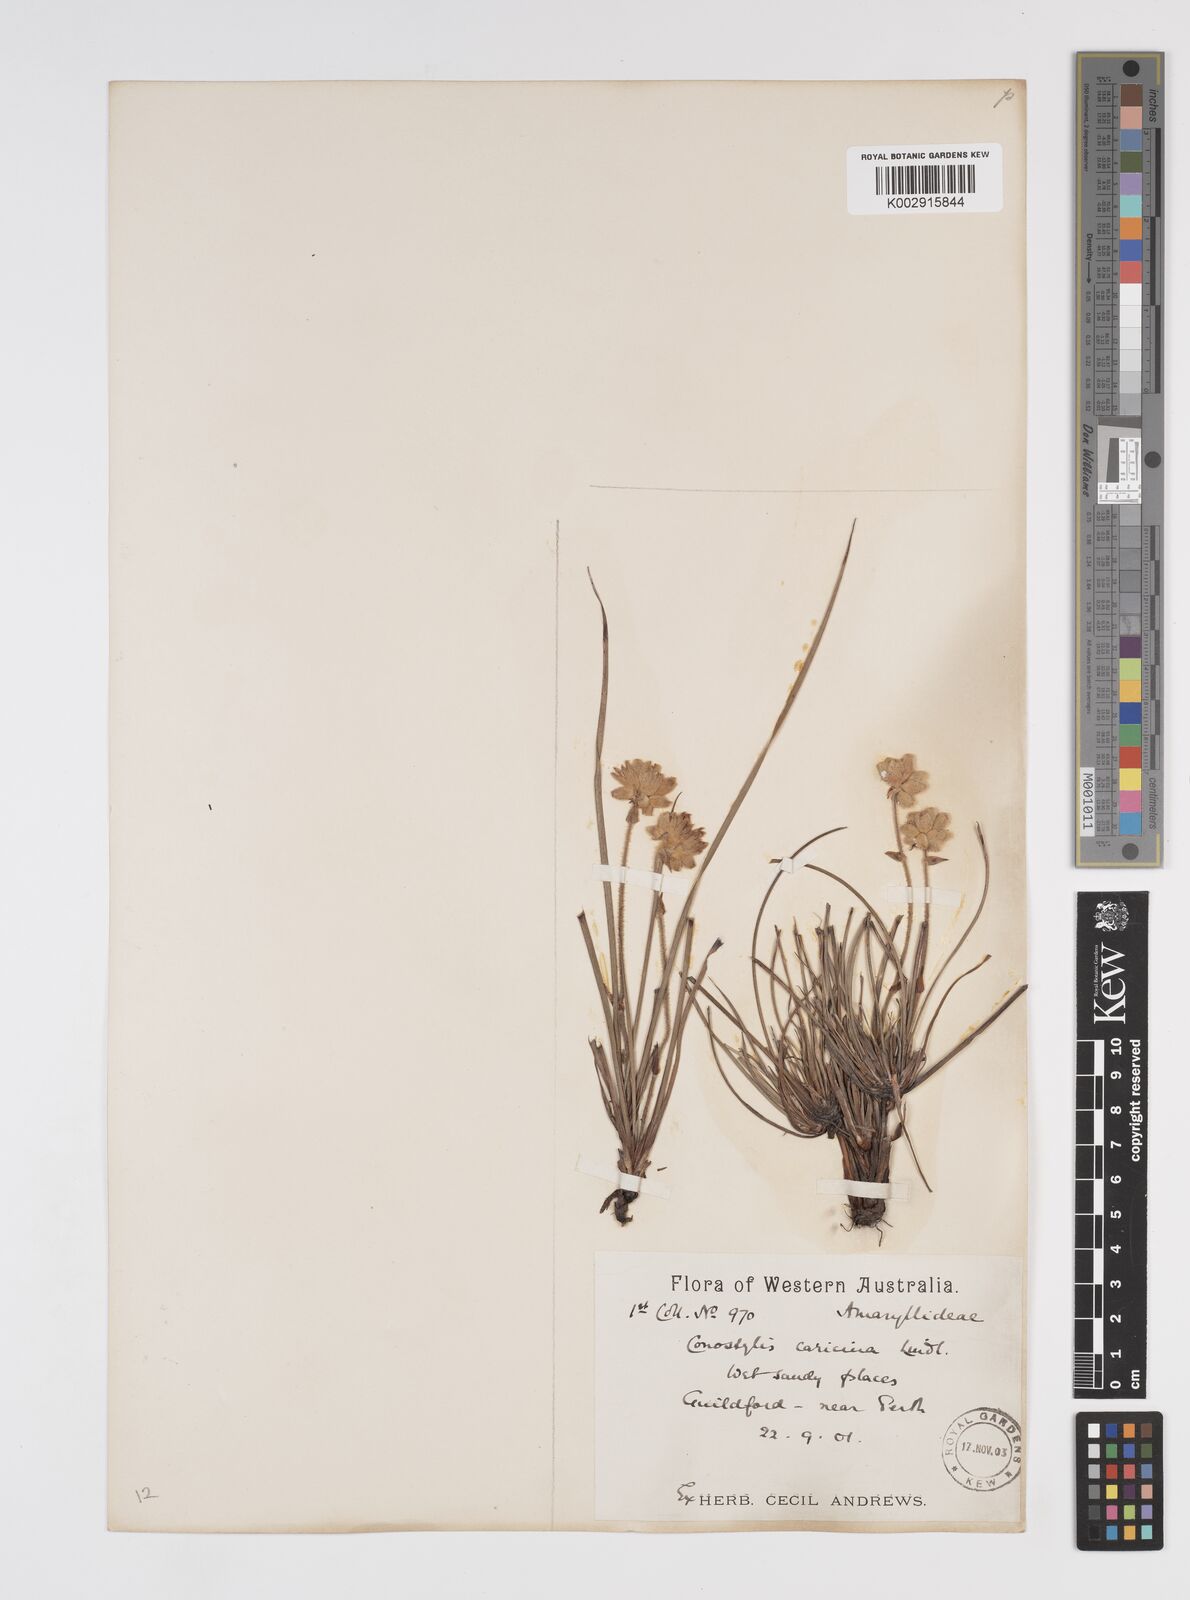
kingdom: Plantae
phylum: Tracheophyta
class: Liliopsida
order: Commelinales
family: Haemodoraceae
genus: Conostylis
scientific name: Conostylis caricina
